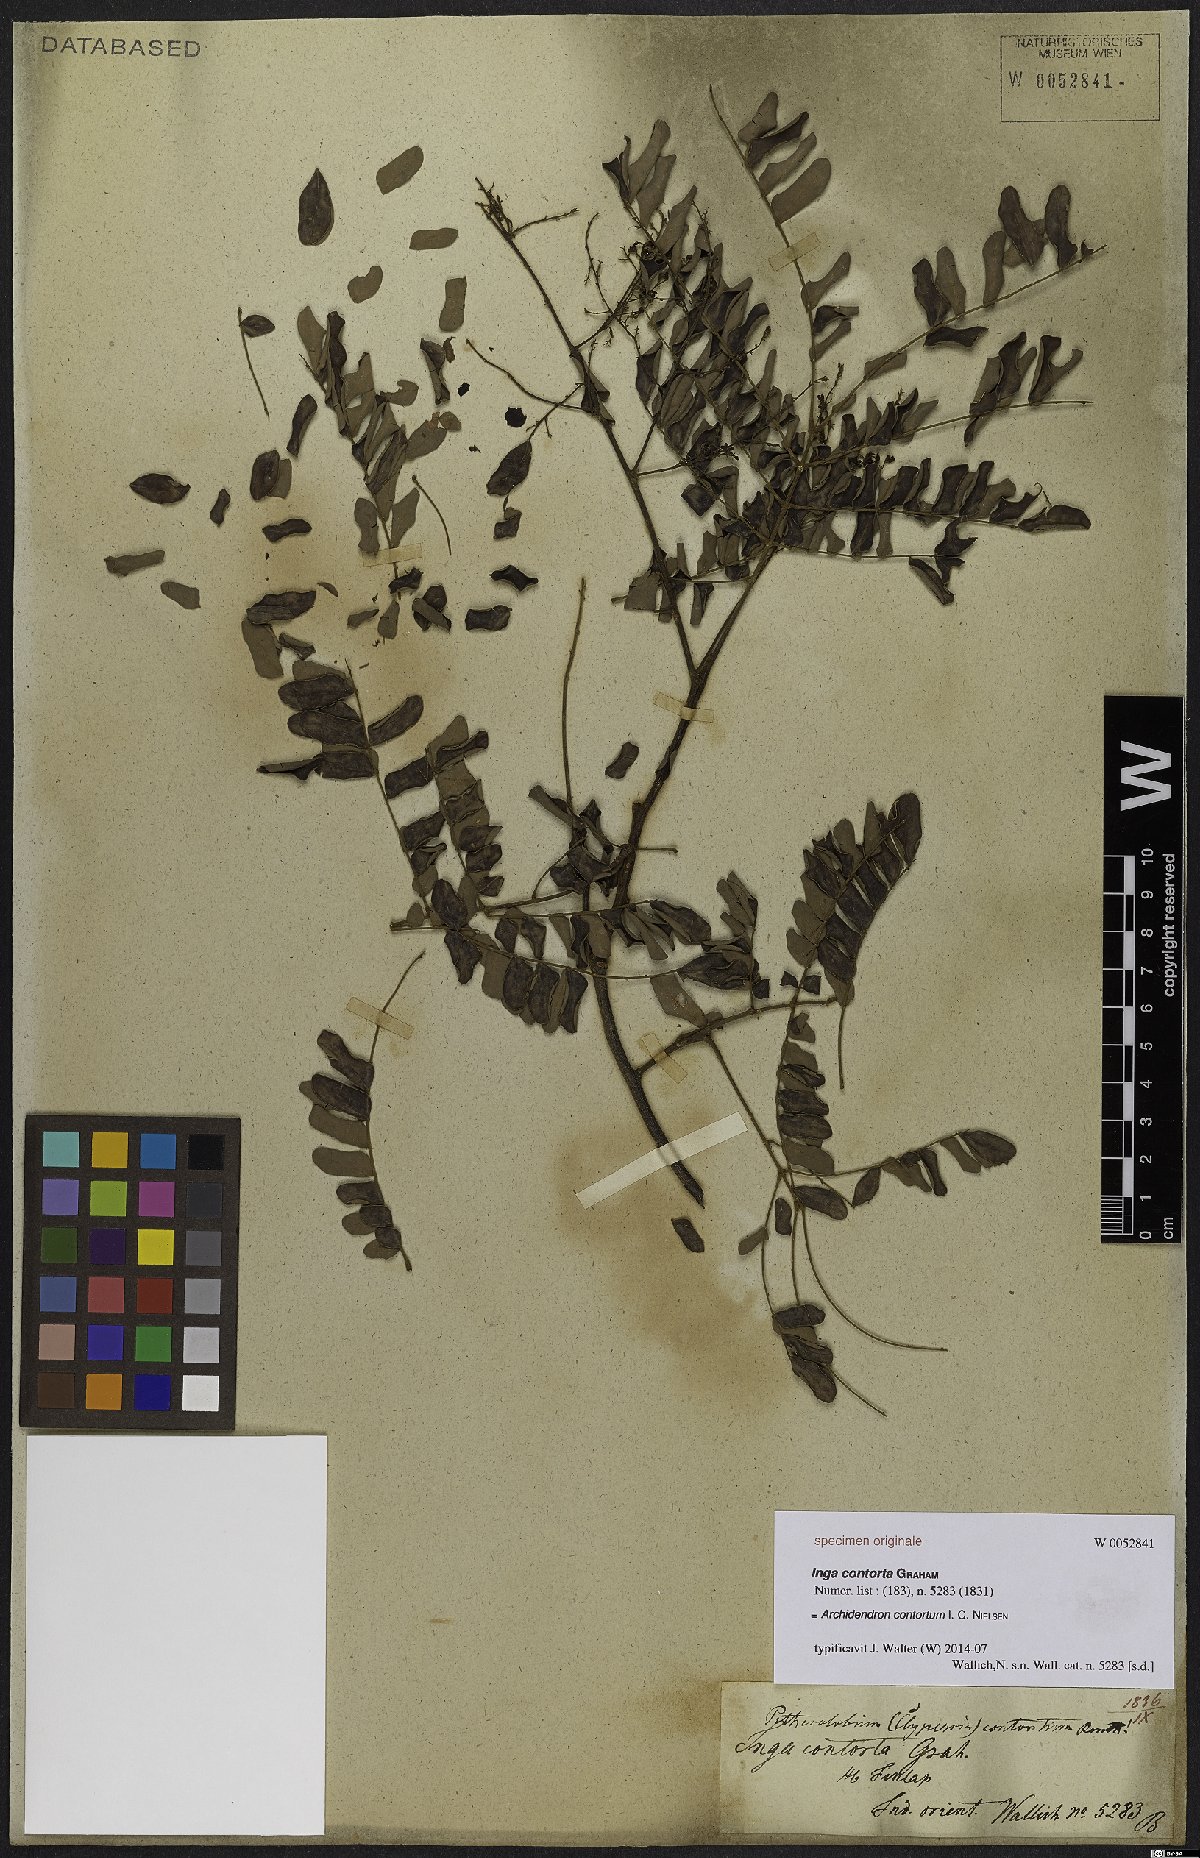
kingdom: Plantae
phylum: Tracheophyta
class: Magnoliopsida
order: Fabales
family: Fabaceae
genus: Archidendron
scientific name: Archidendron contortum
